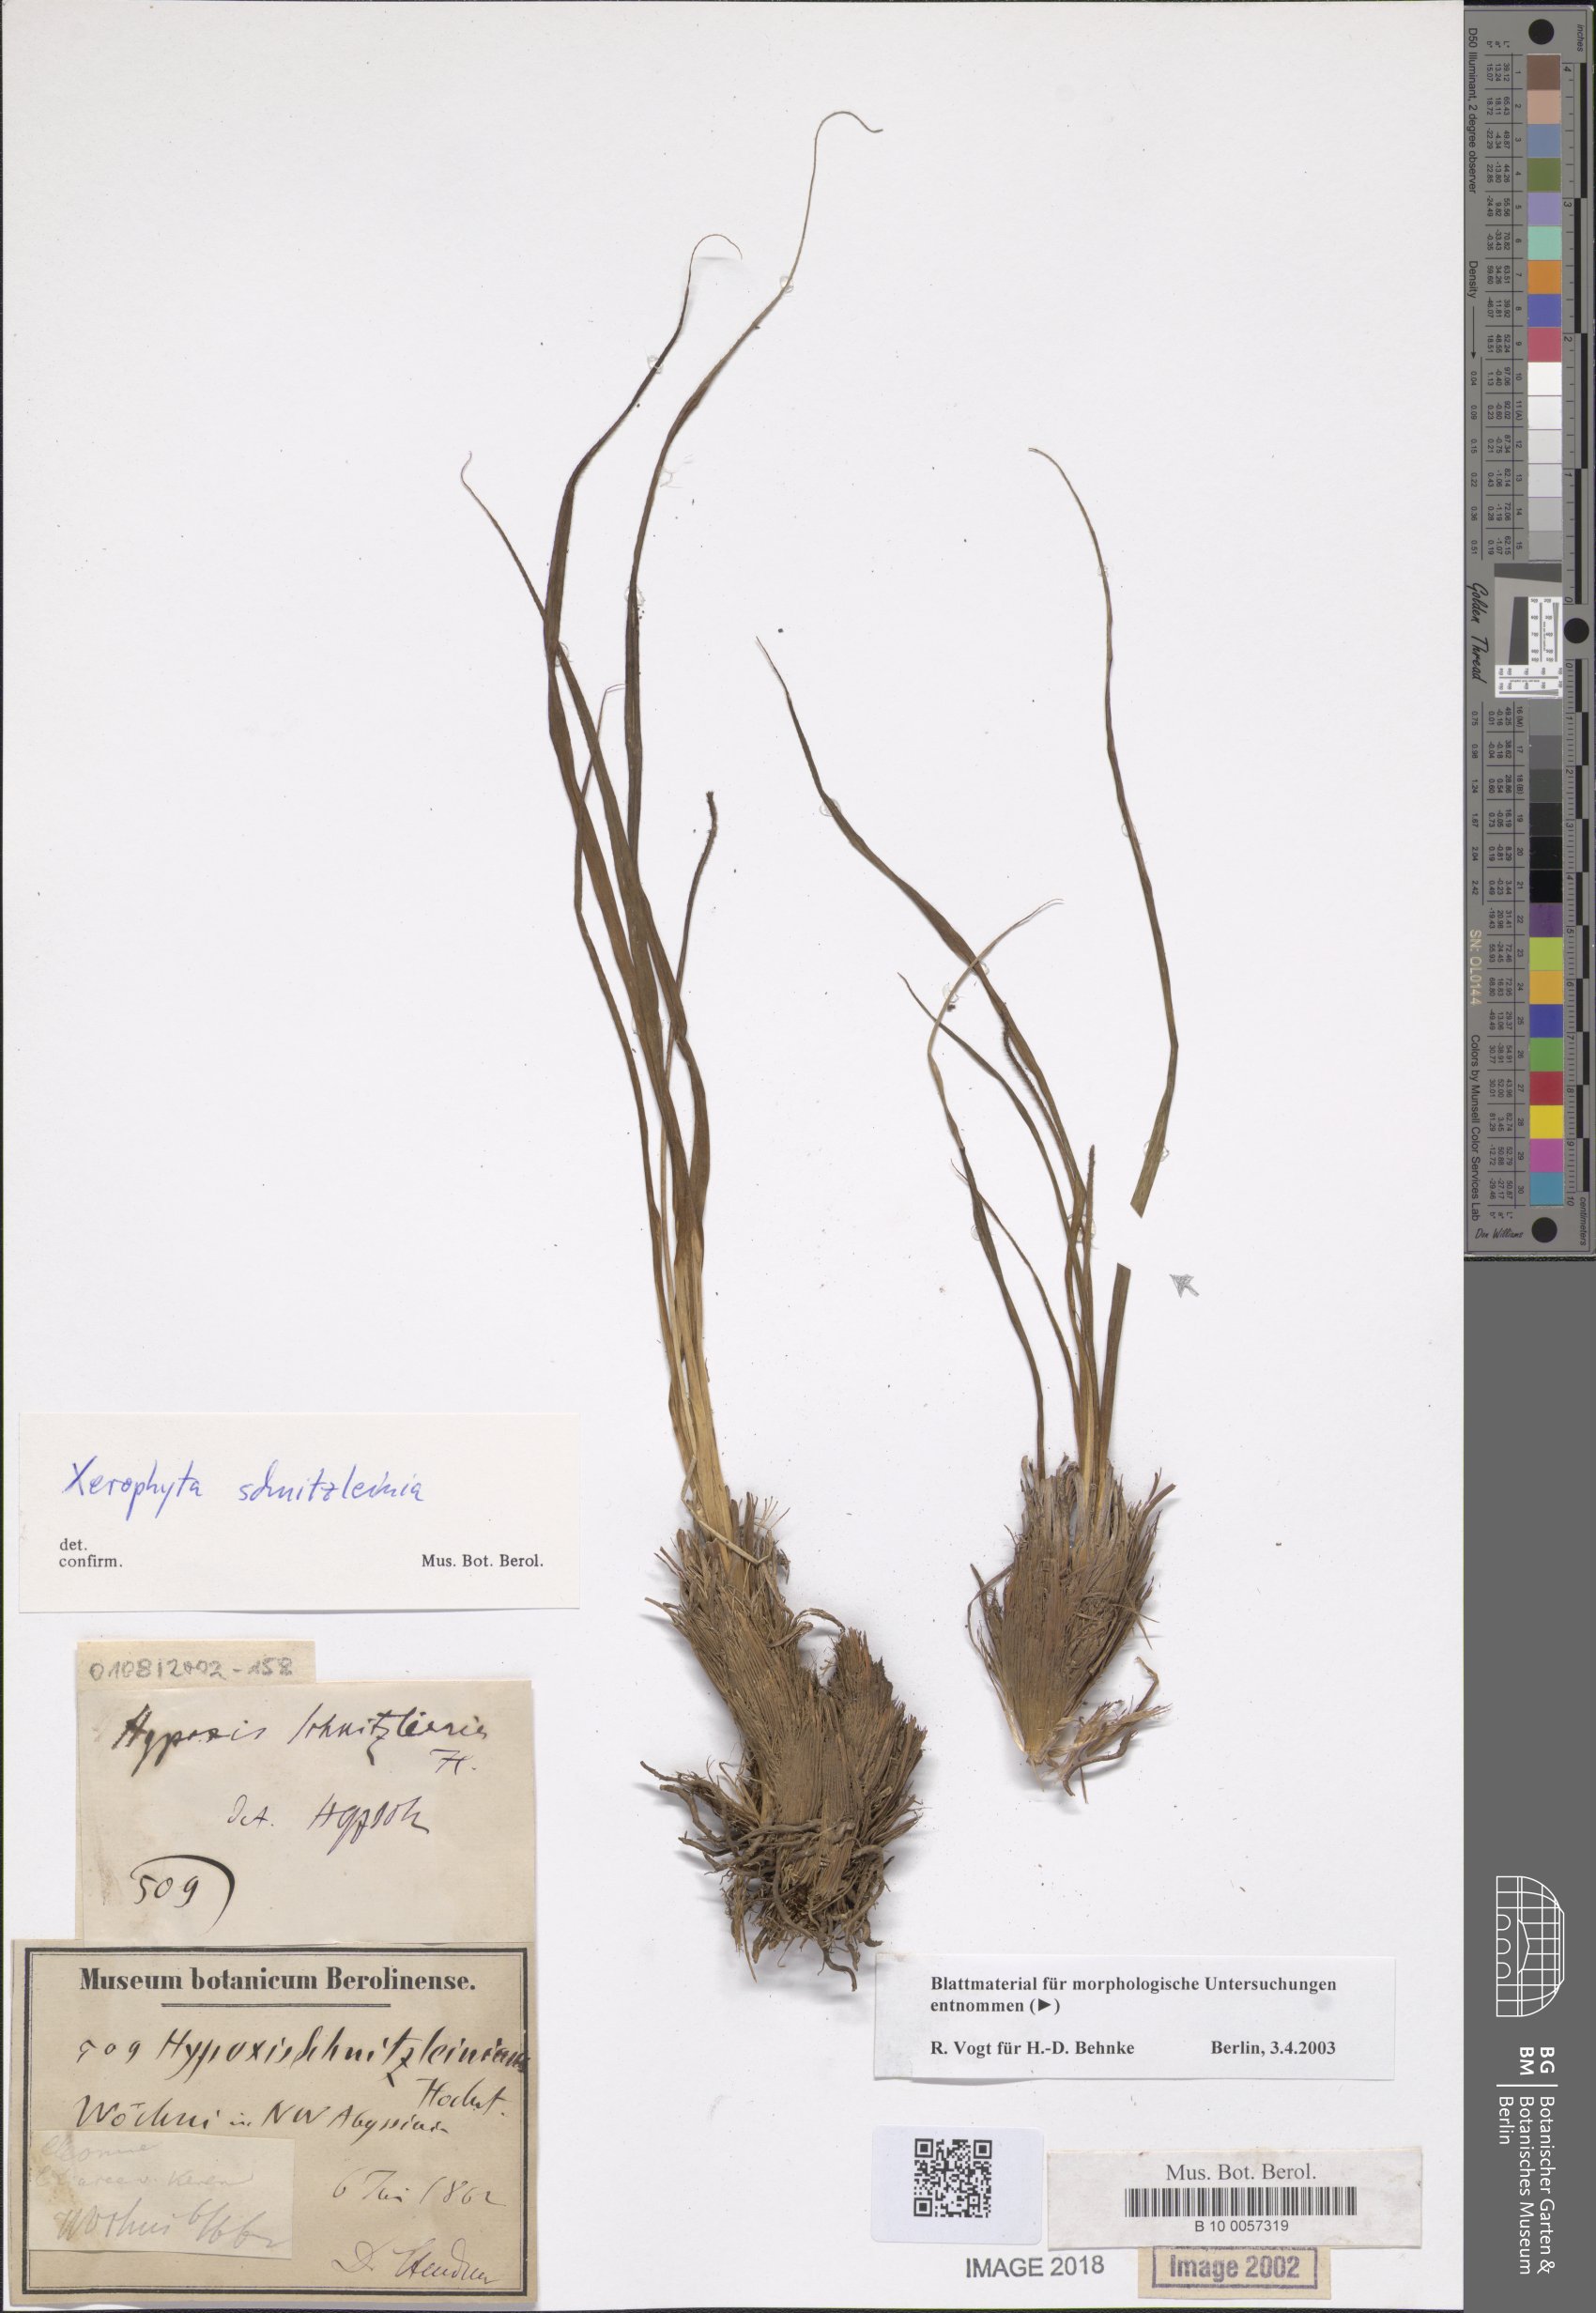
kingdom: Plantae
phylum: Tracheophyta
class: Liliopsida
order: Pandanales
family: Velloziaceae
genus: Xerophyta
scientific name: Xerophyta schnizleinia
